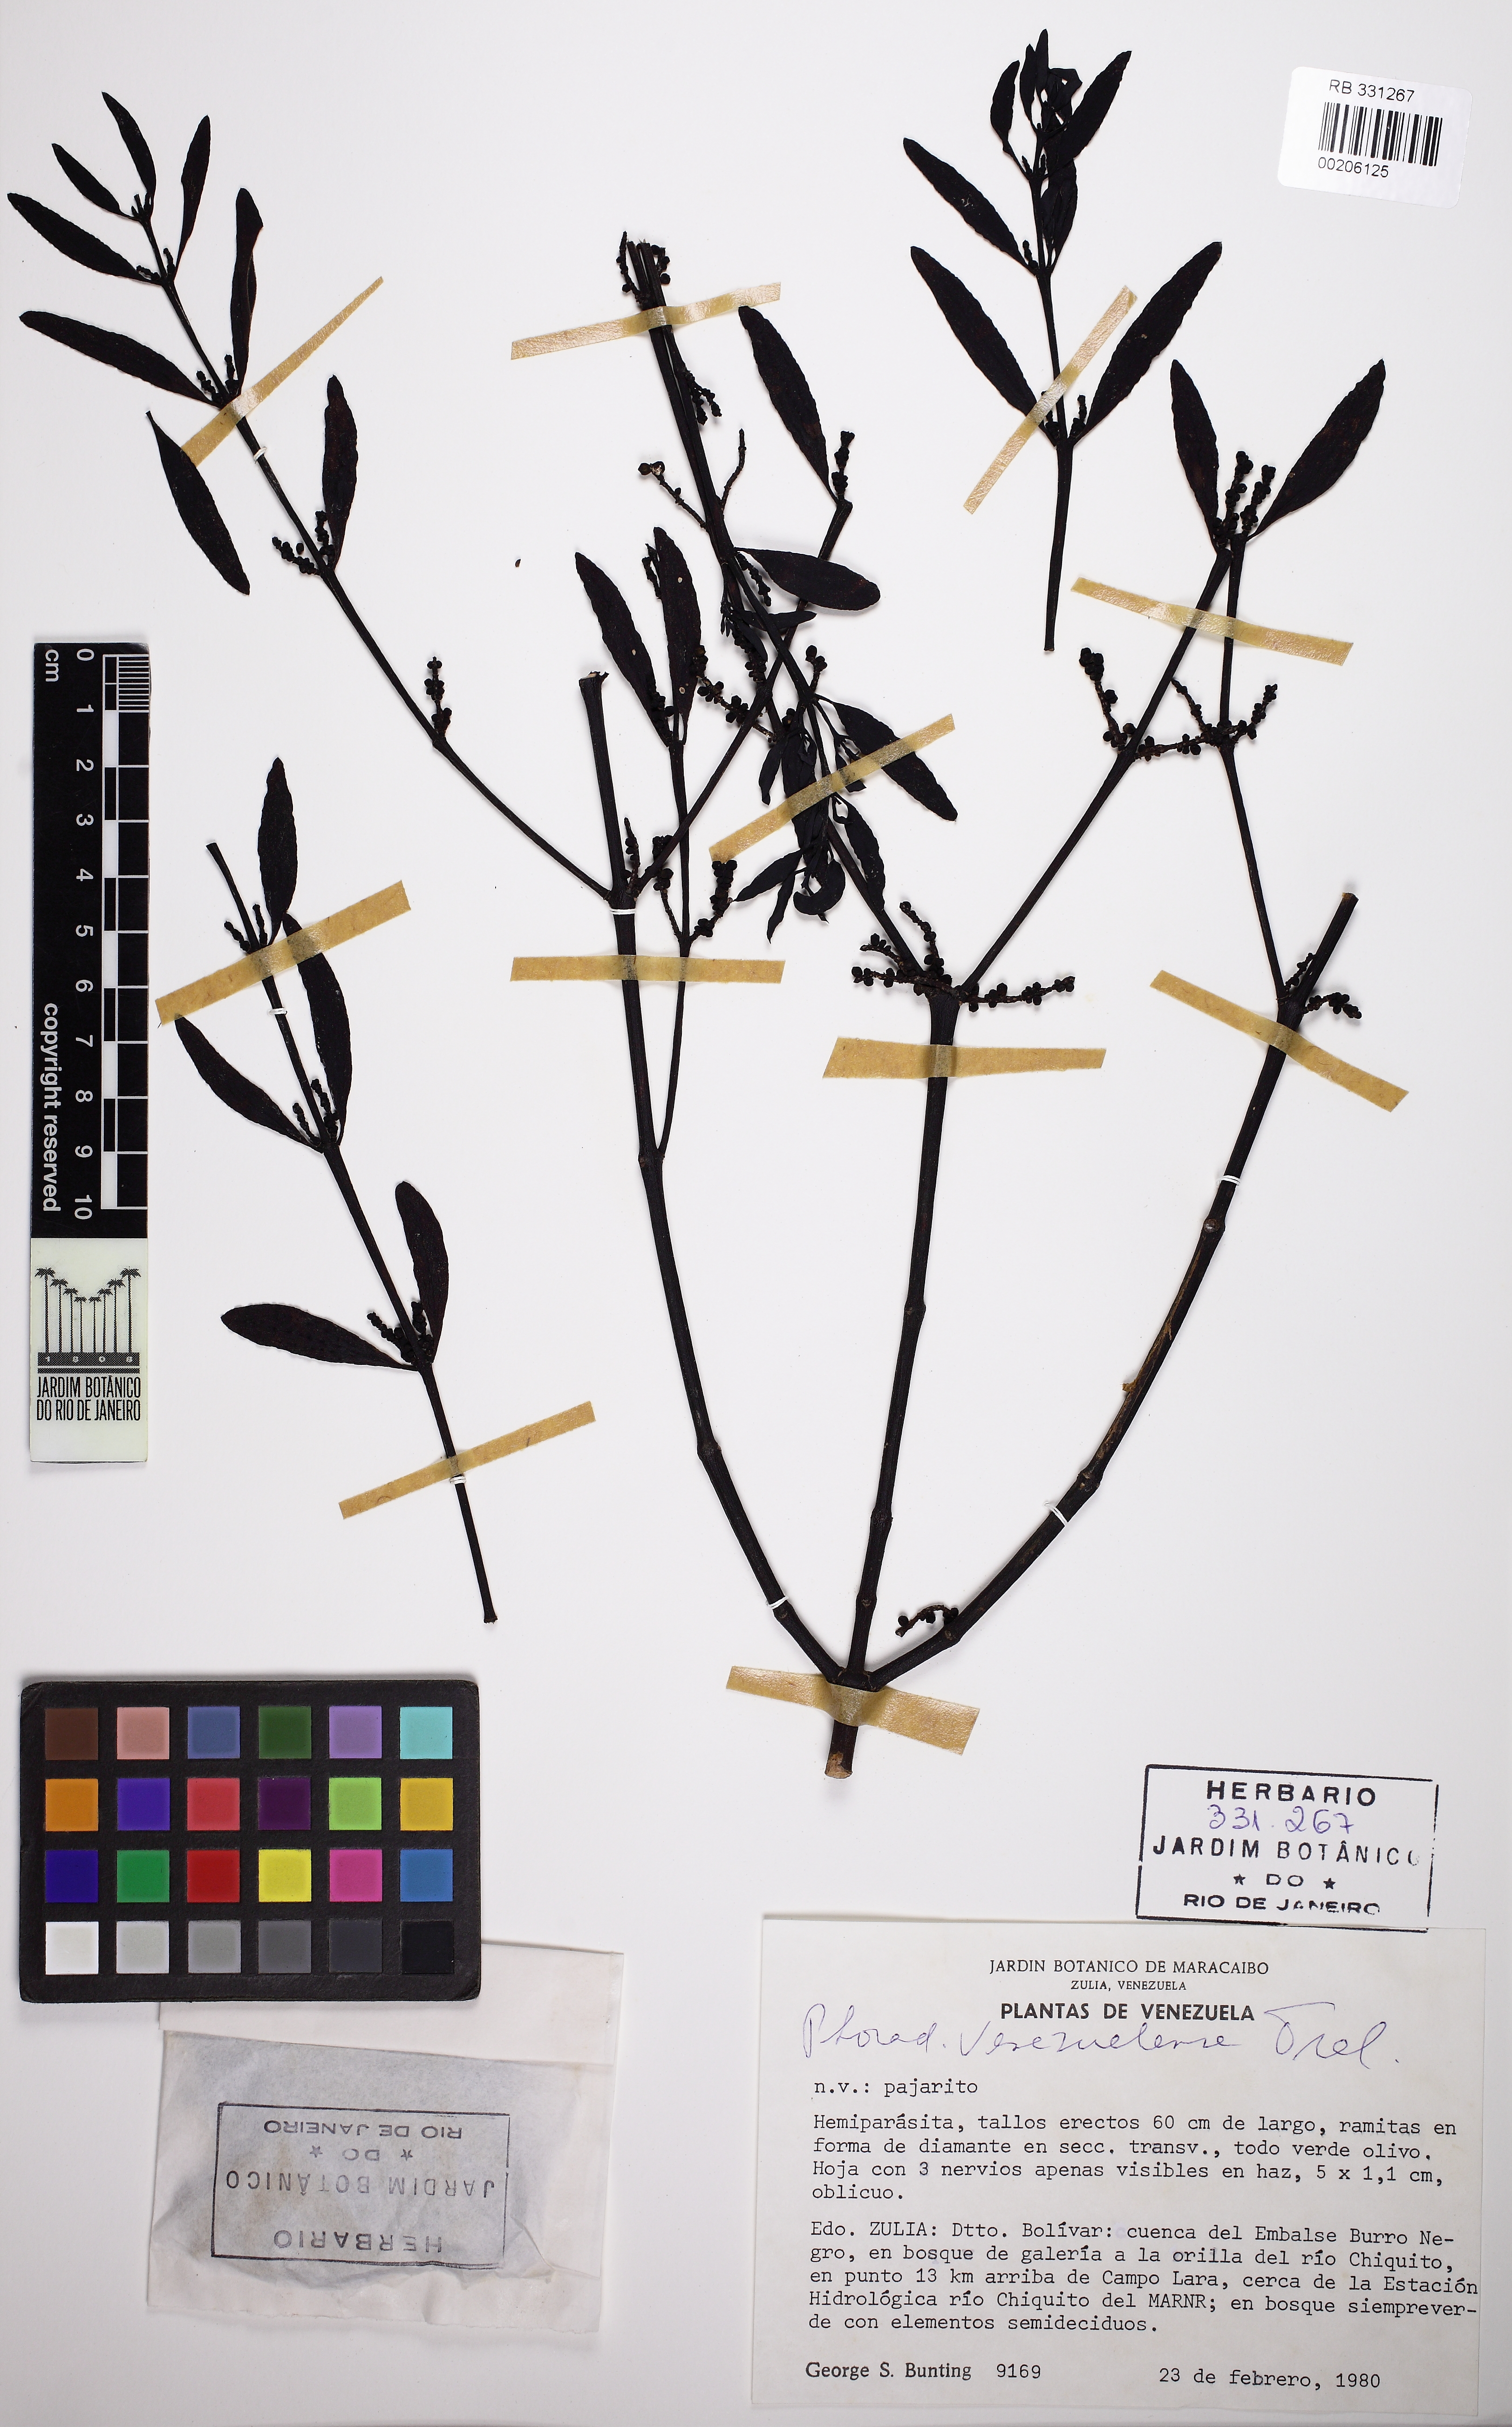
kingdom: Plantae
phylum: Tracheophyta
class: Magnoliopsida
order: Santalales
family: Viscaceae
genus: Phoradendron
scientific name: Phoradendron quadrangulare
